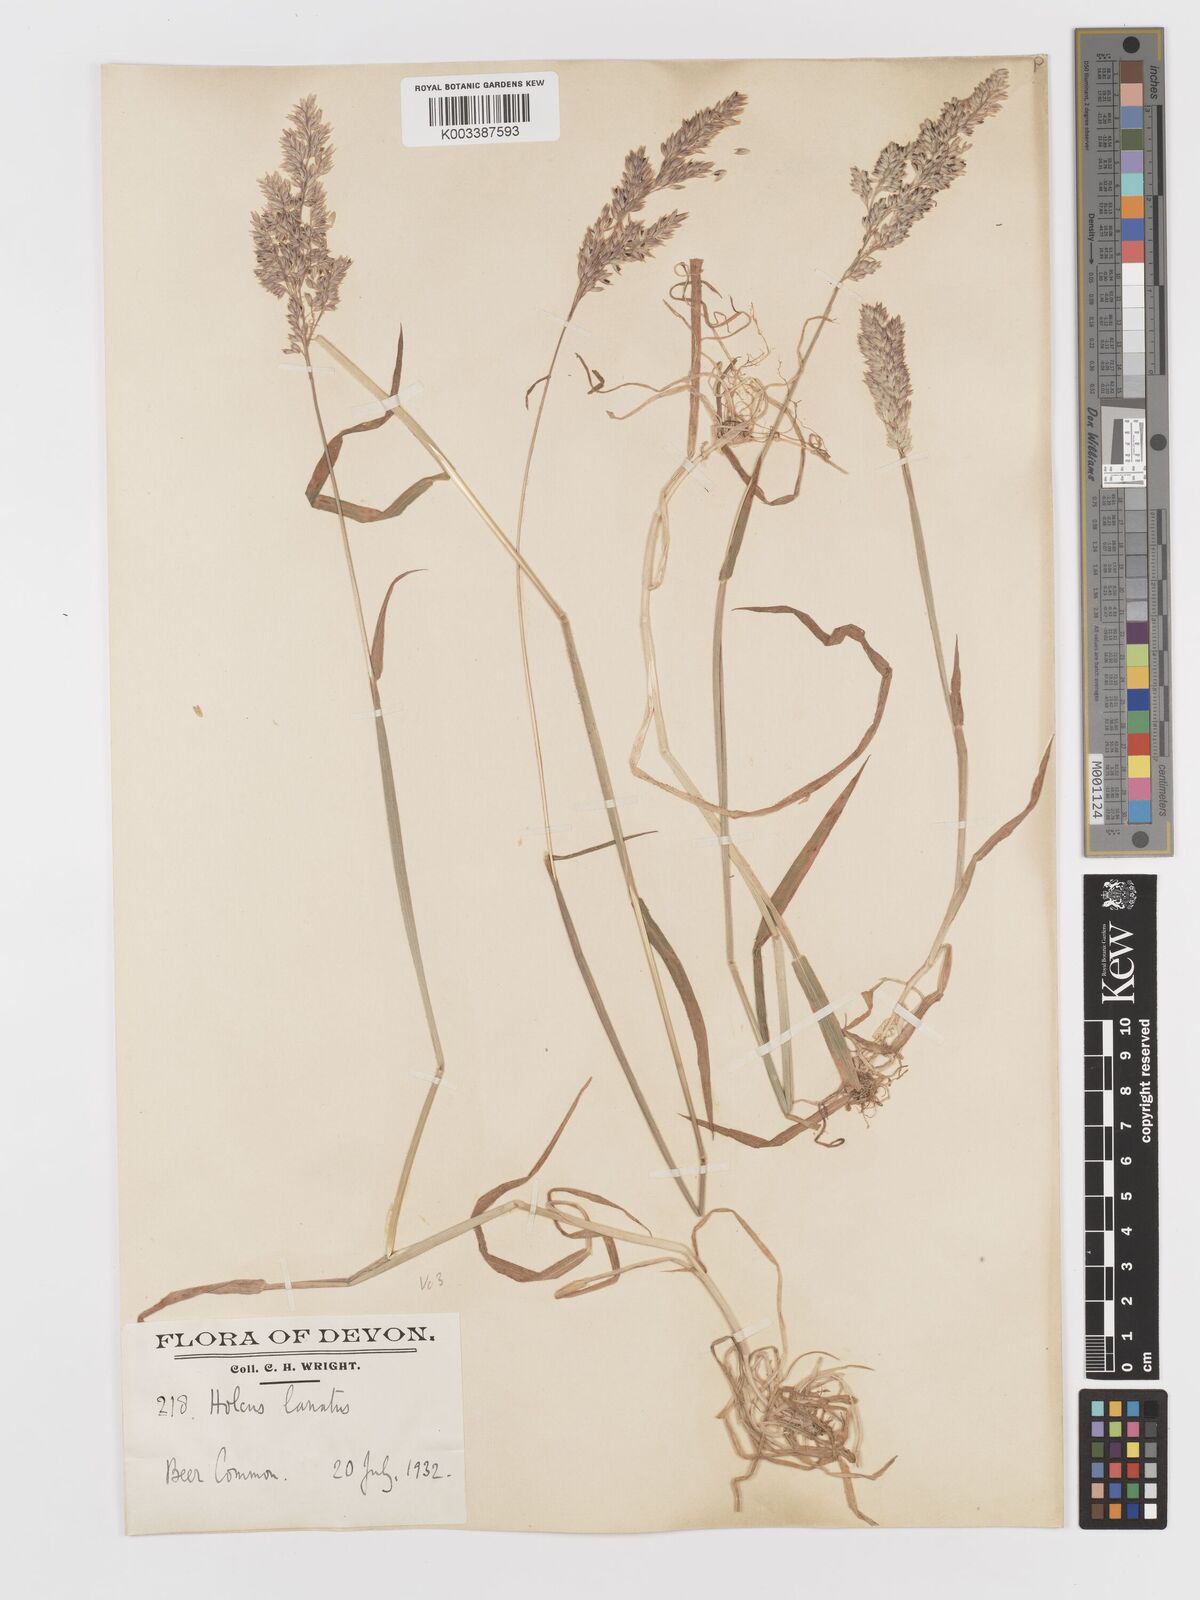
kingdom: Plantae
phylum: Tracheophyta
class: Liliopsida
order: Poales
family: Poaceae
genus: Holcus
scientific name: Holcus lanatus
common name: Yorkshire-fog
